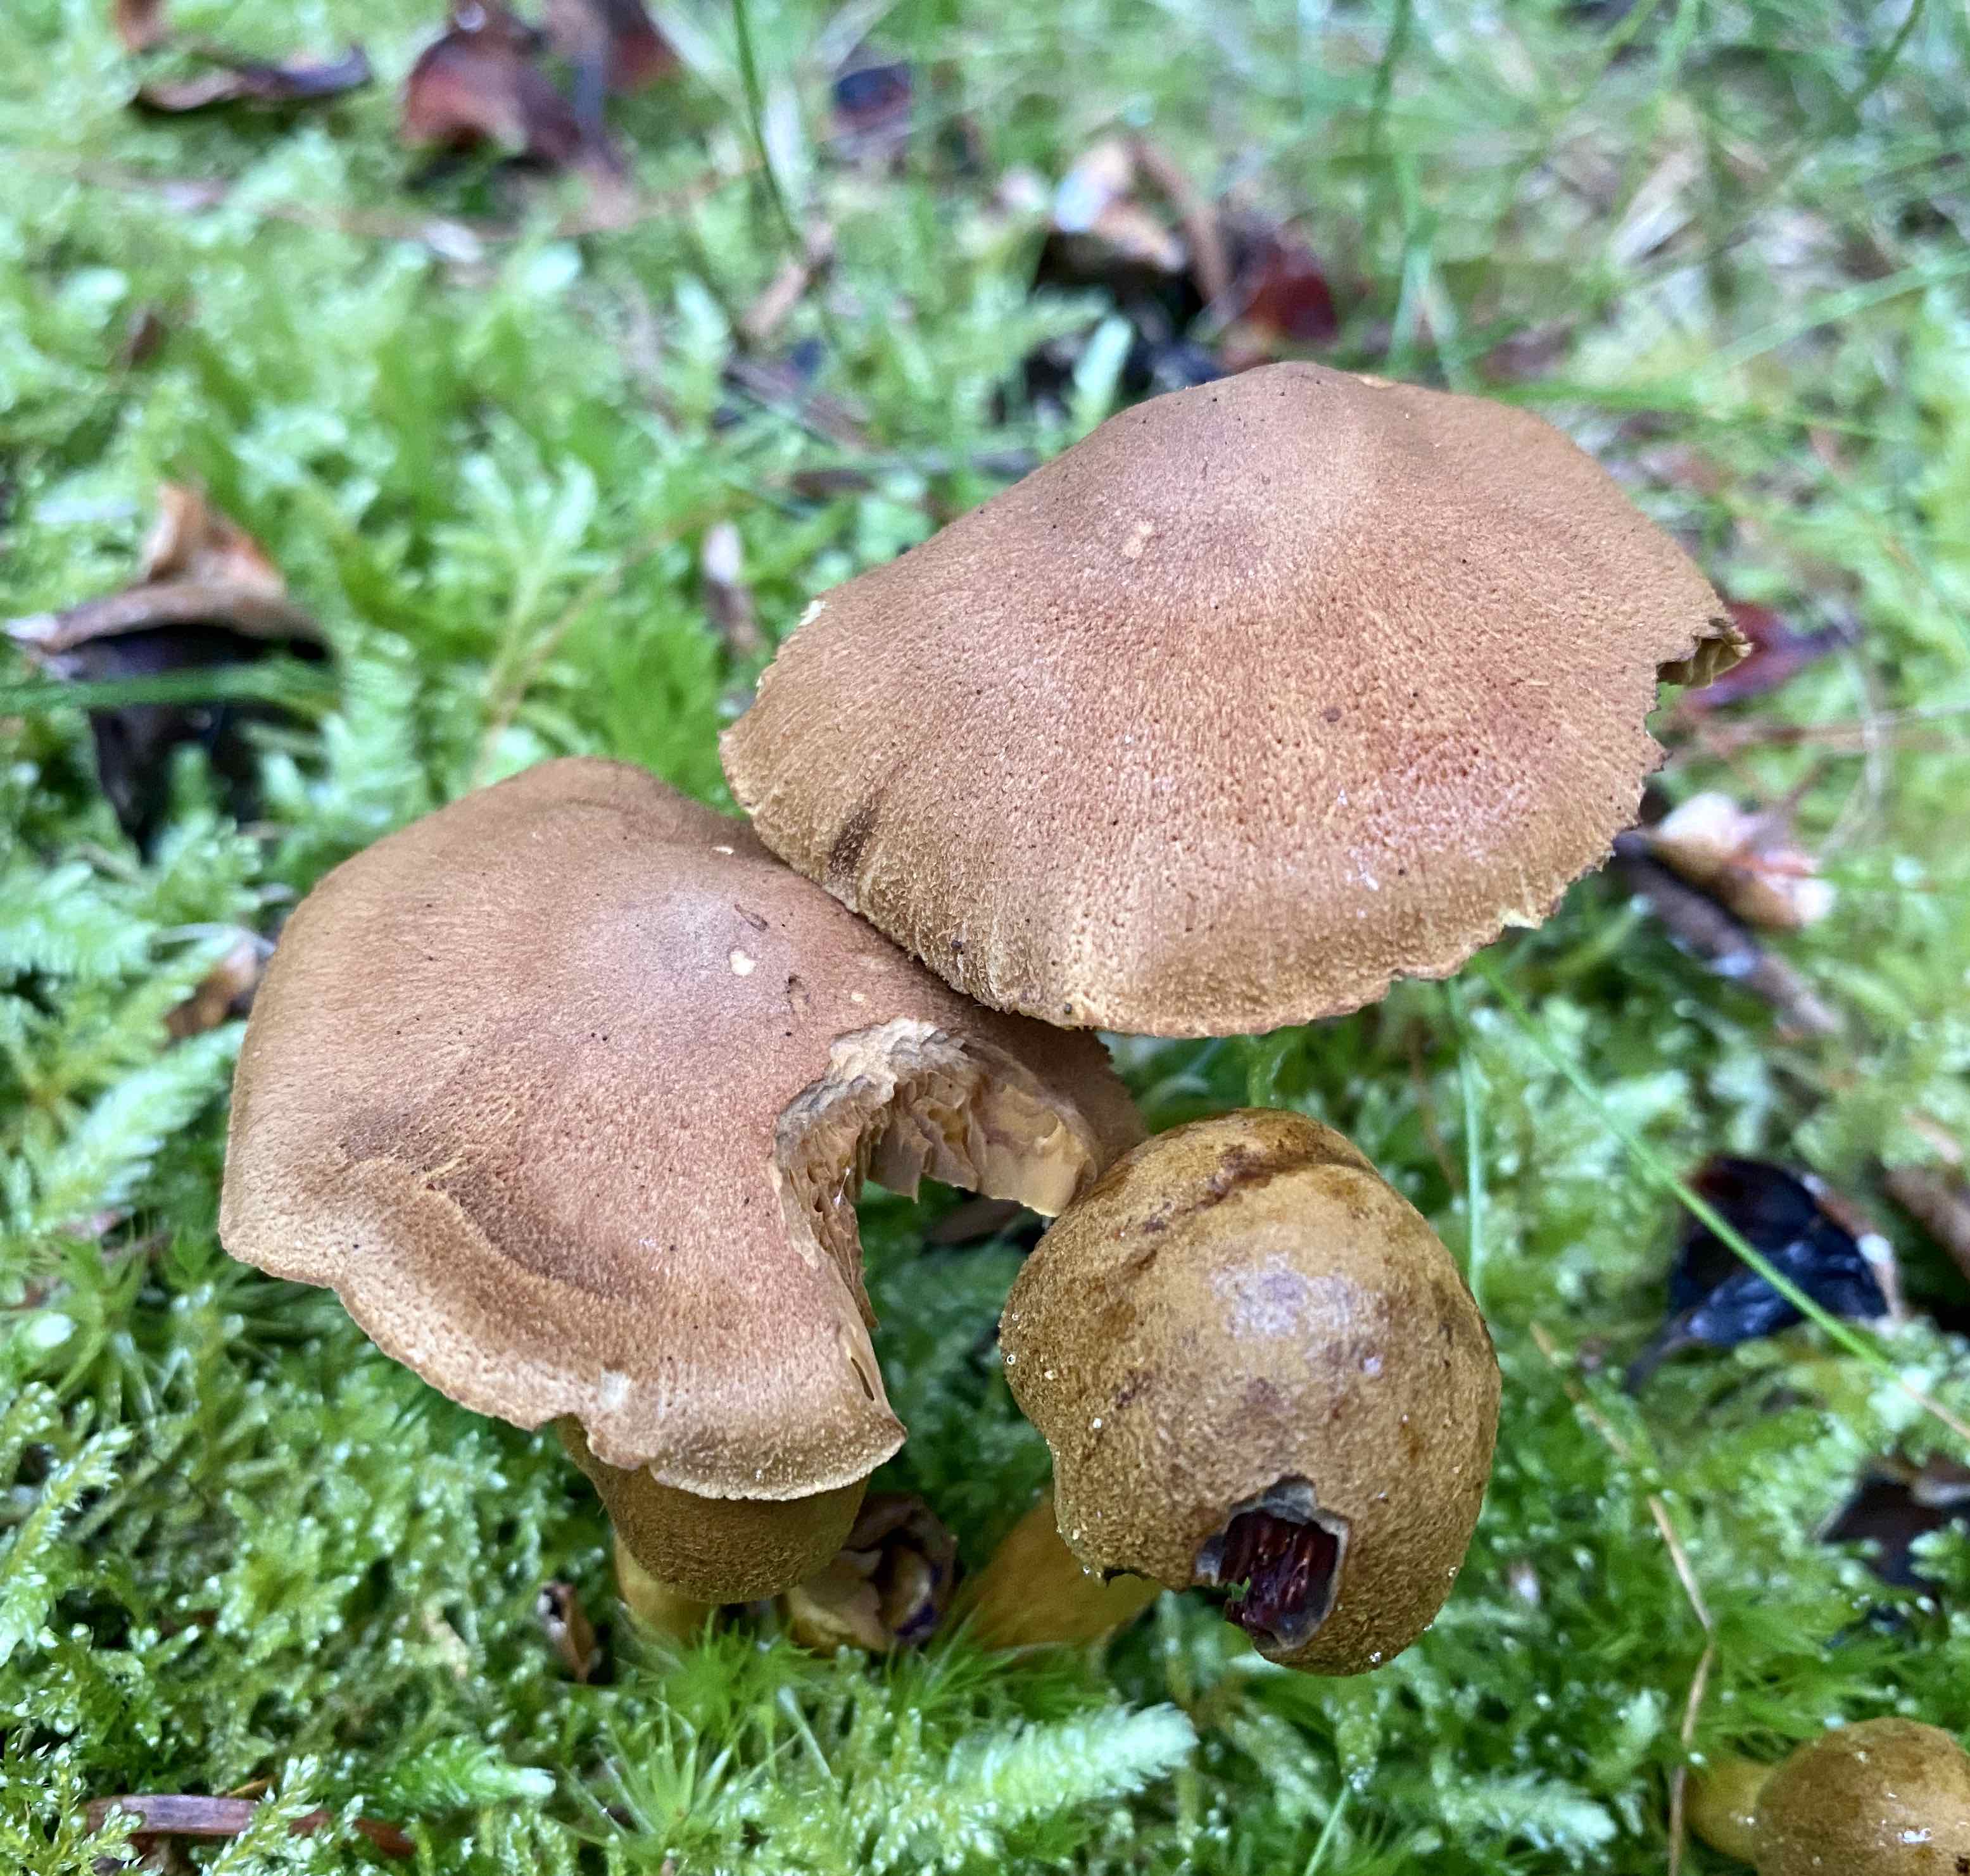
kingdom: Fungi
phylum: Basidiomycota
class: Agaricomycetes
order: Agaricales
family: Cortinariaceae
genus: Cortinarius
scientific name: Cortinarius
